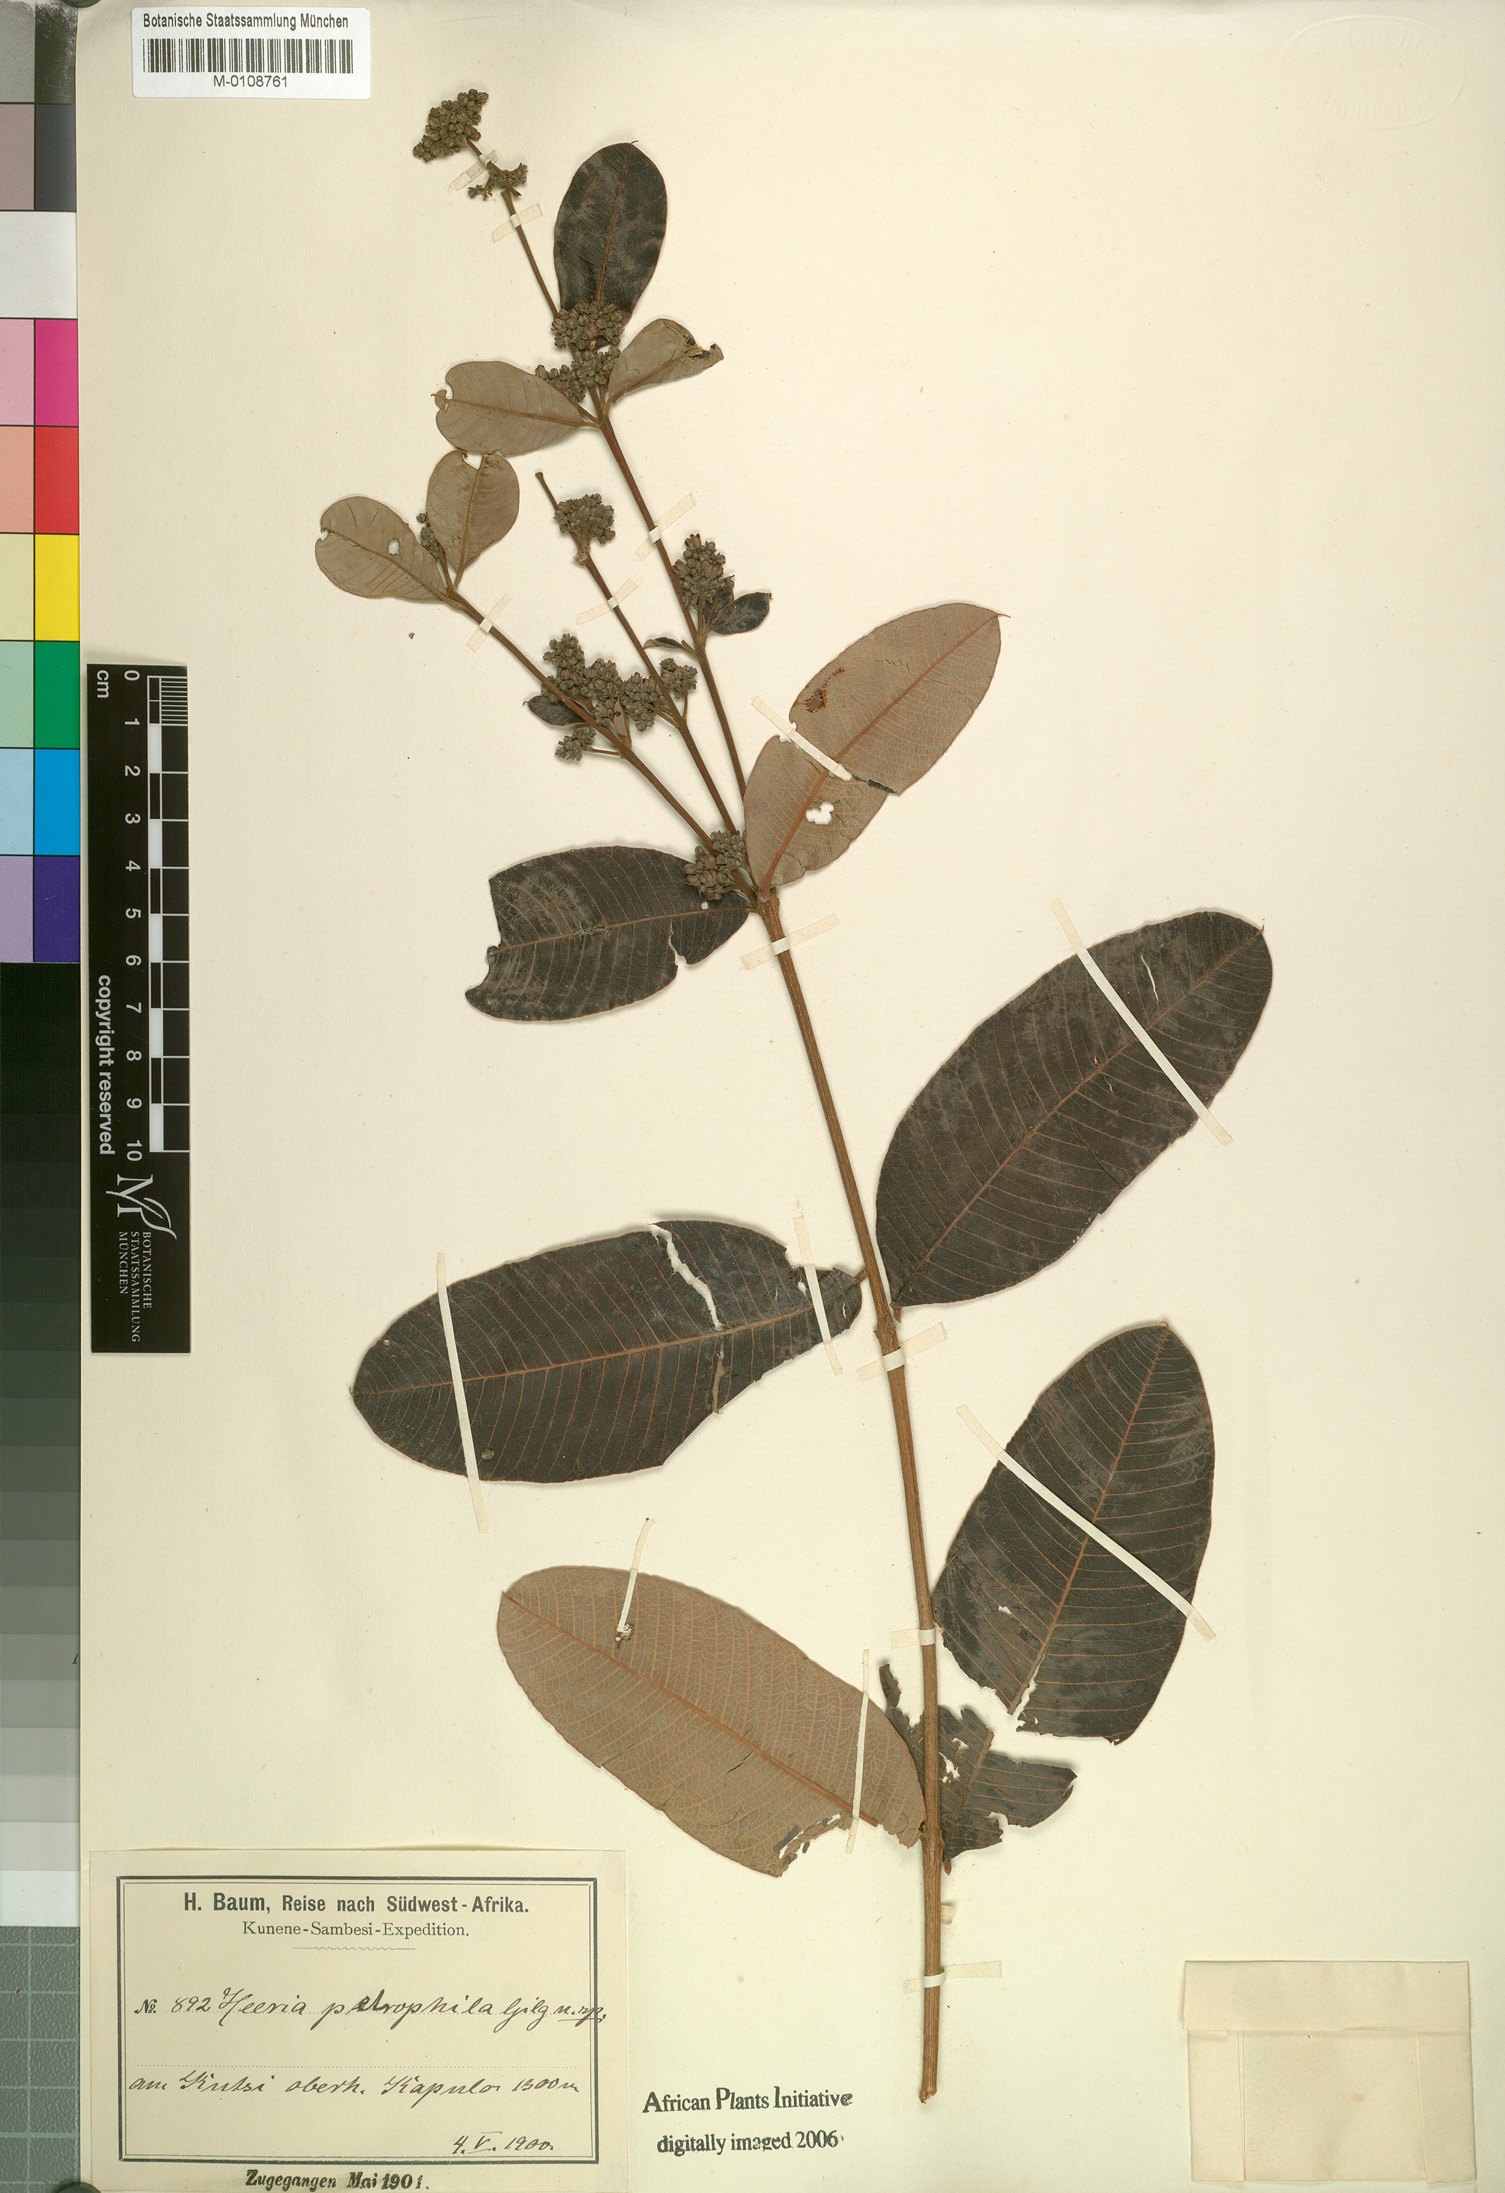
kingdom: Plantae
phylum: Tracheophyta
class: Magnoliopsida
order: Sapindales
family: Anacardiaceae
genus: Ozoroa
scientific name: Ozoroa argyrochrysea
